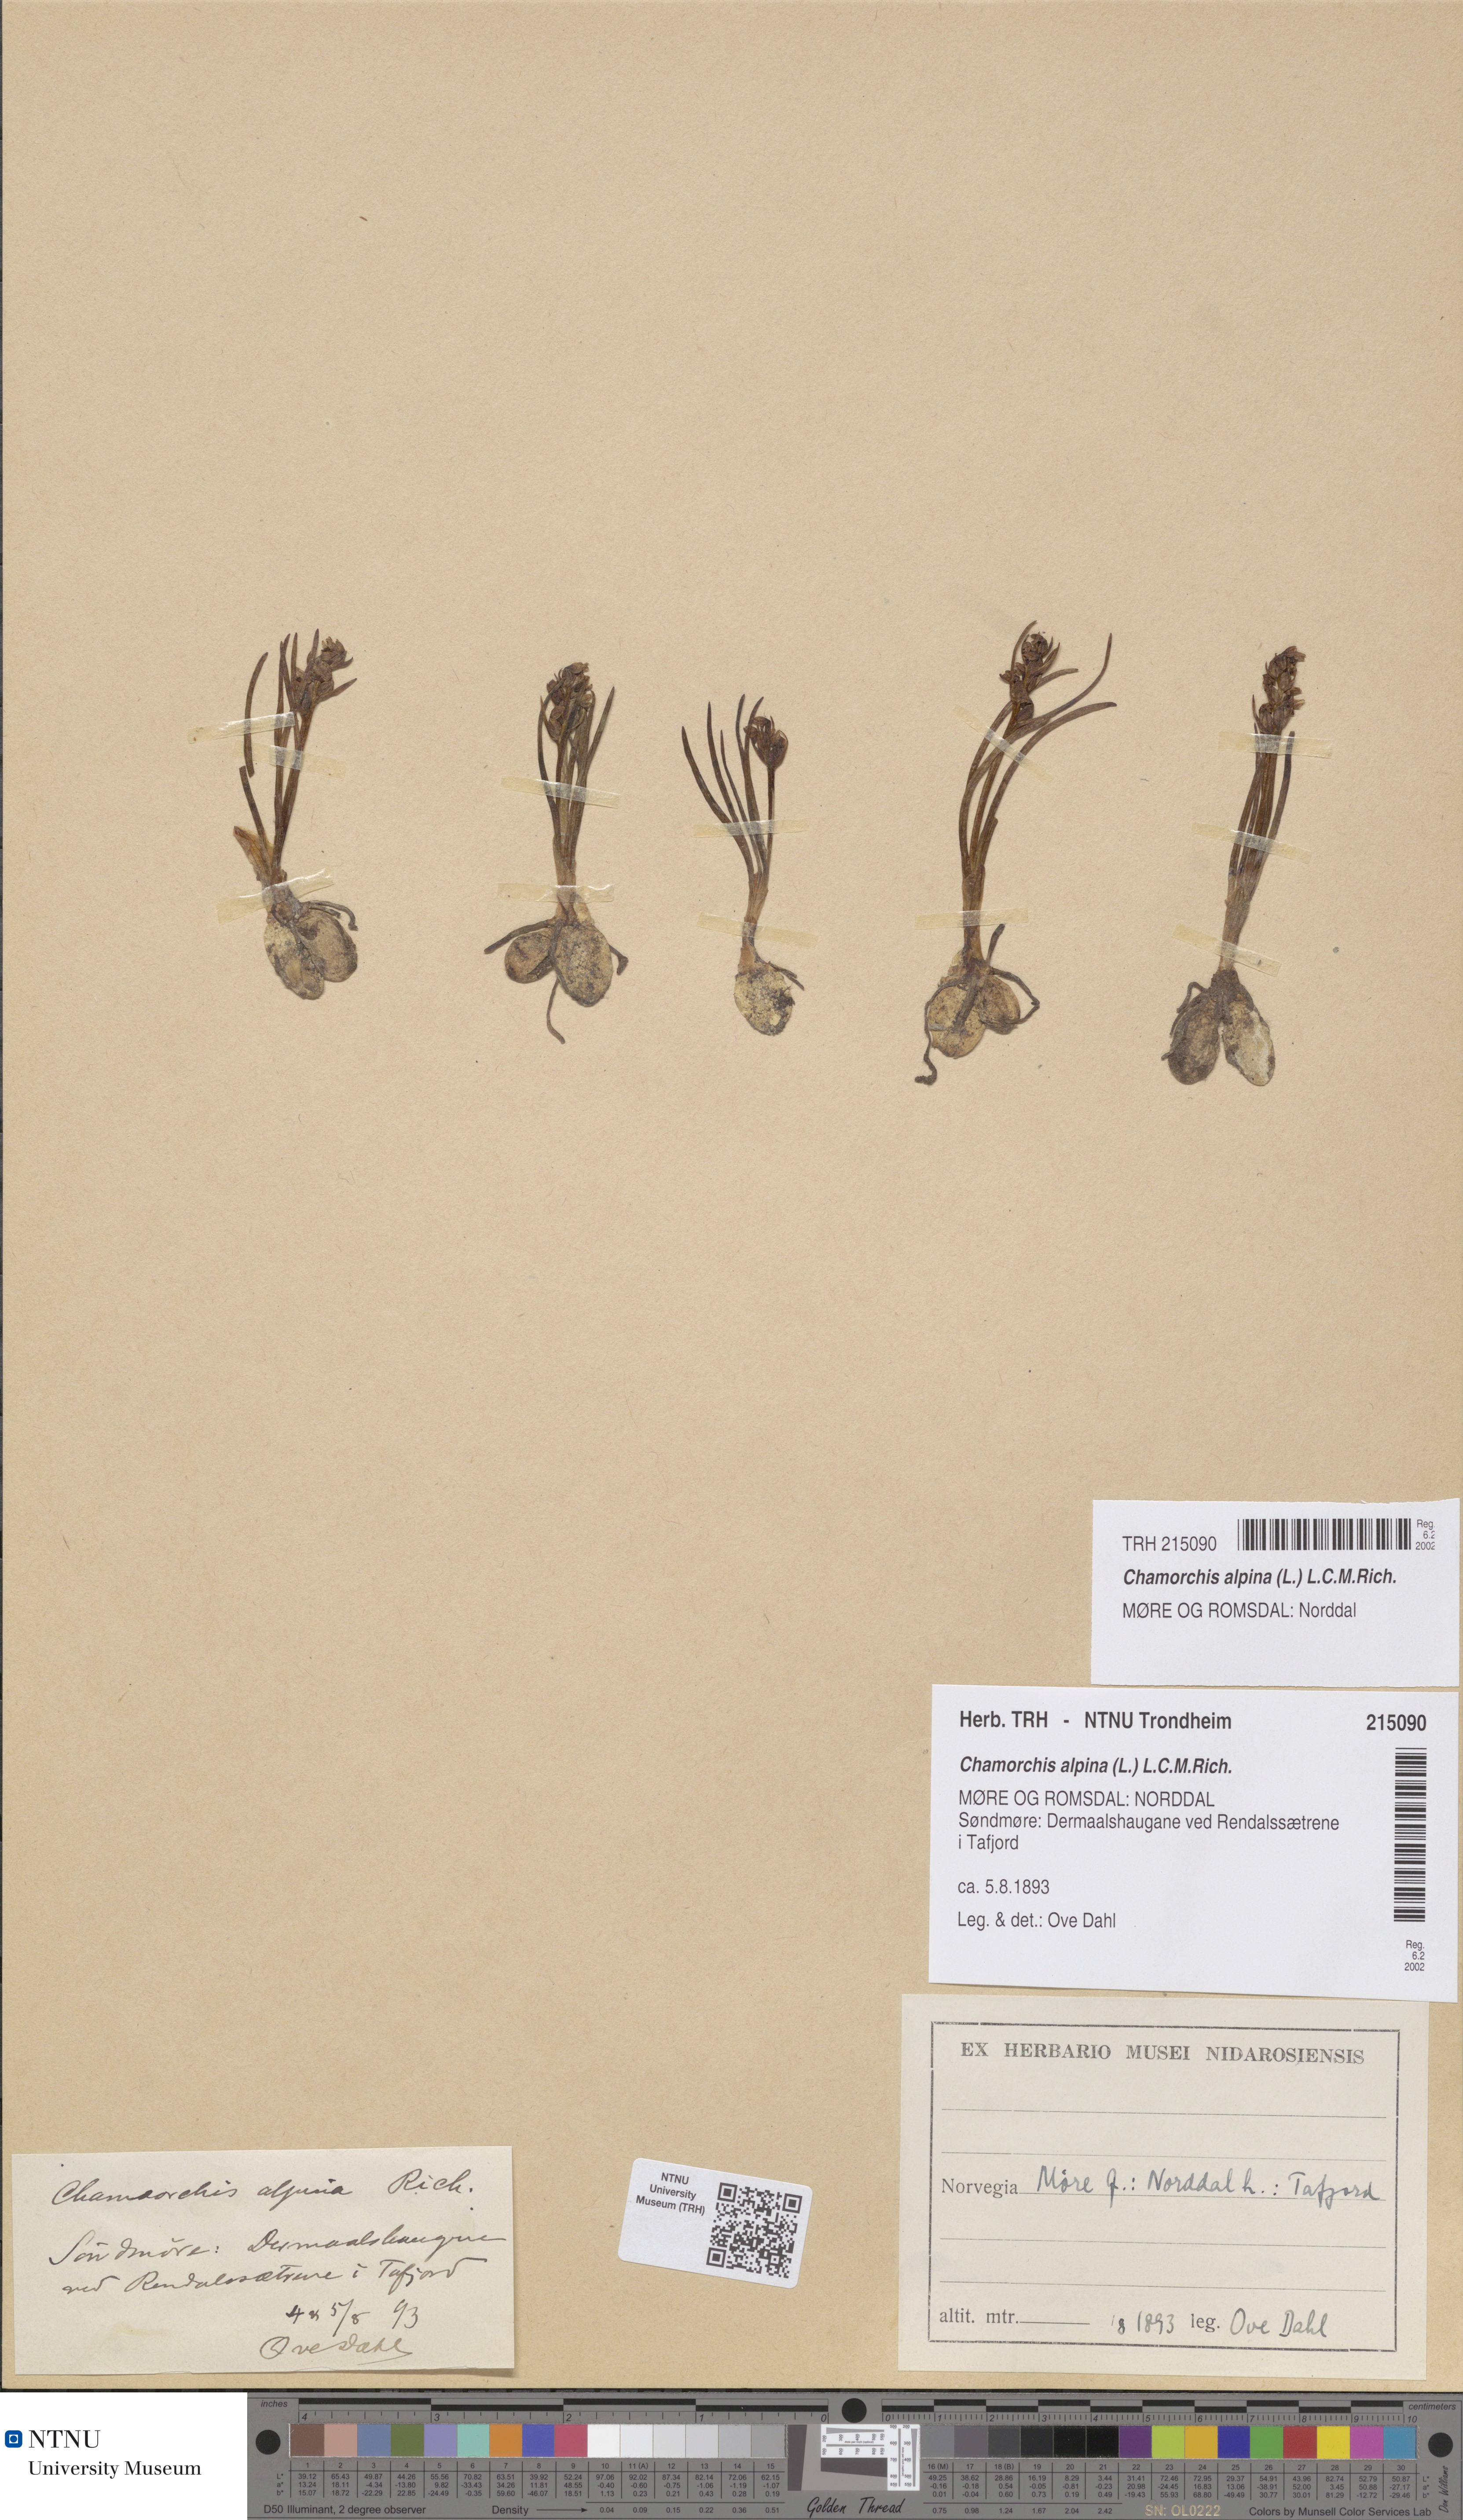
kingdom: Plantae
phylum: Tracheophyta
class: Liliopsida
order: Asparagales
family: Orchidaceae
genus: Chamorchis
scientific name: Chamorchis alpina
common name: Alpine chamorchis
